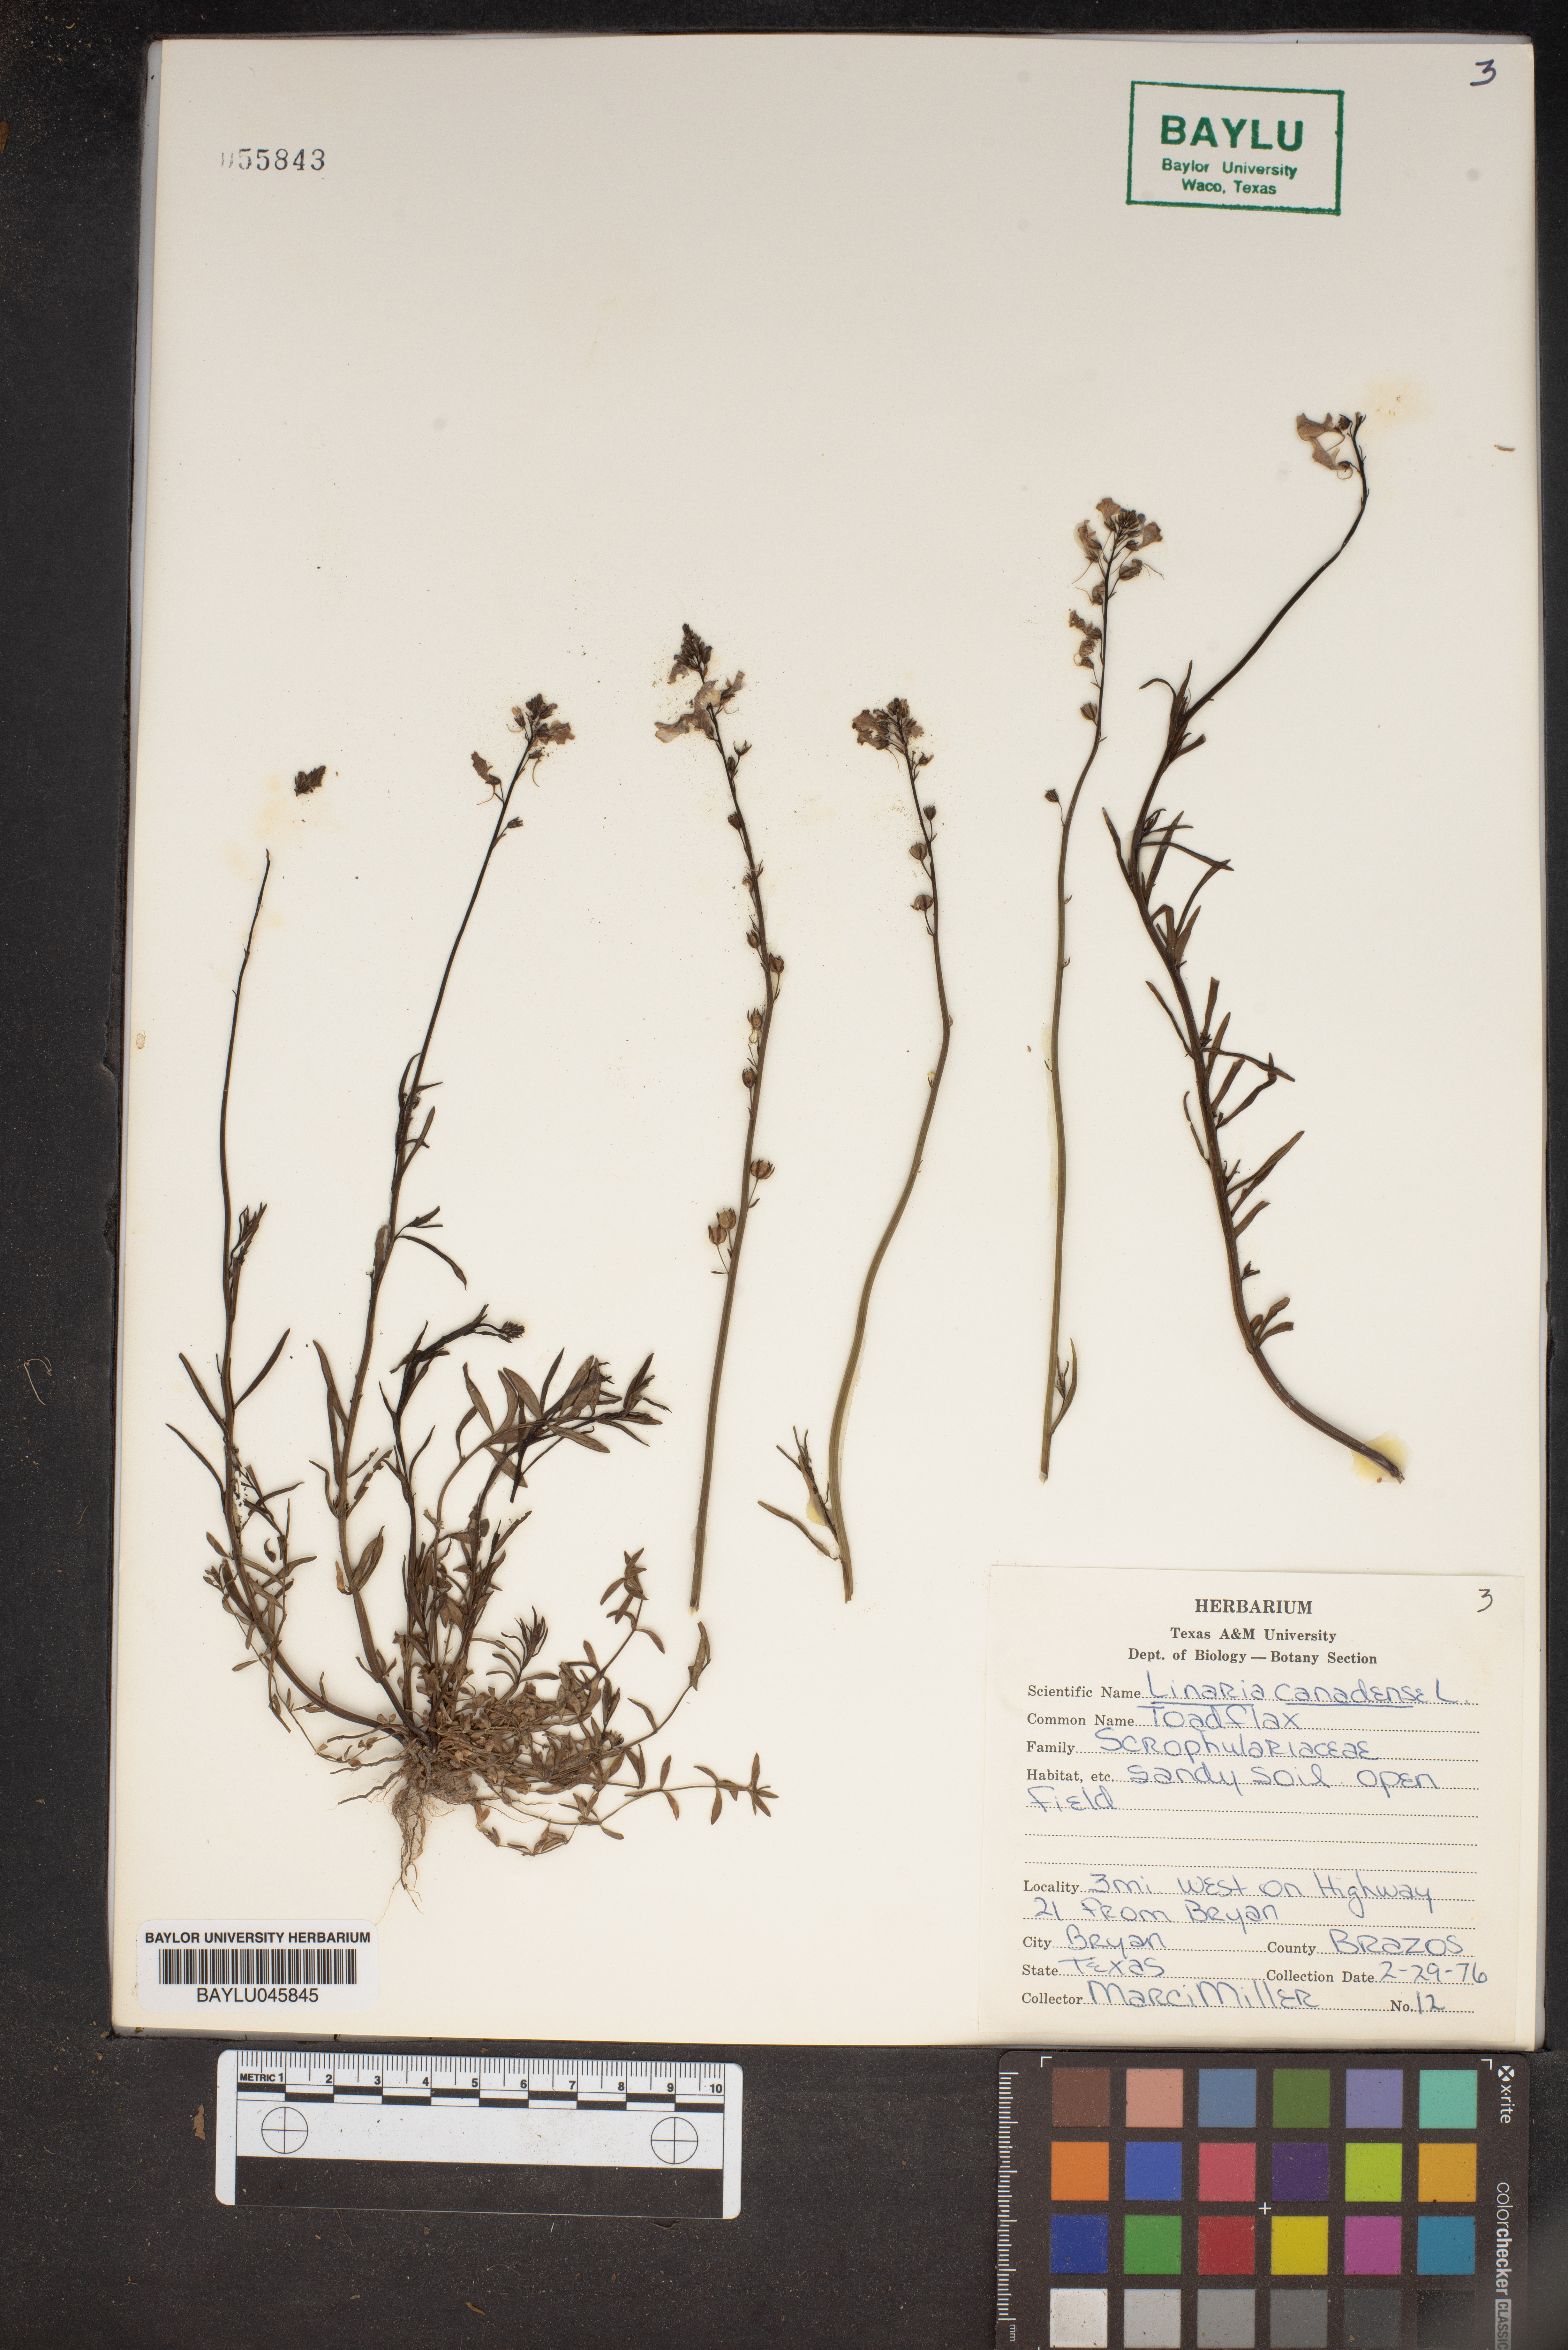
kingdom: Plantae
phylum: Tracheophyta
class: Magnoliopsida
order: Lamiales
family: Plantaginaceae
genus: Nuttallanthus
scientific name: Nuttallanthus canadensis
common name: Blue toadflax
